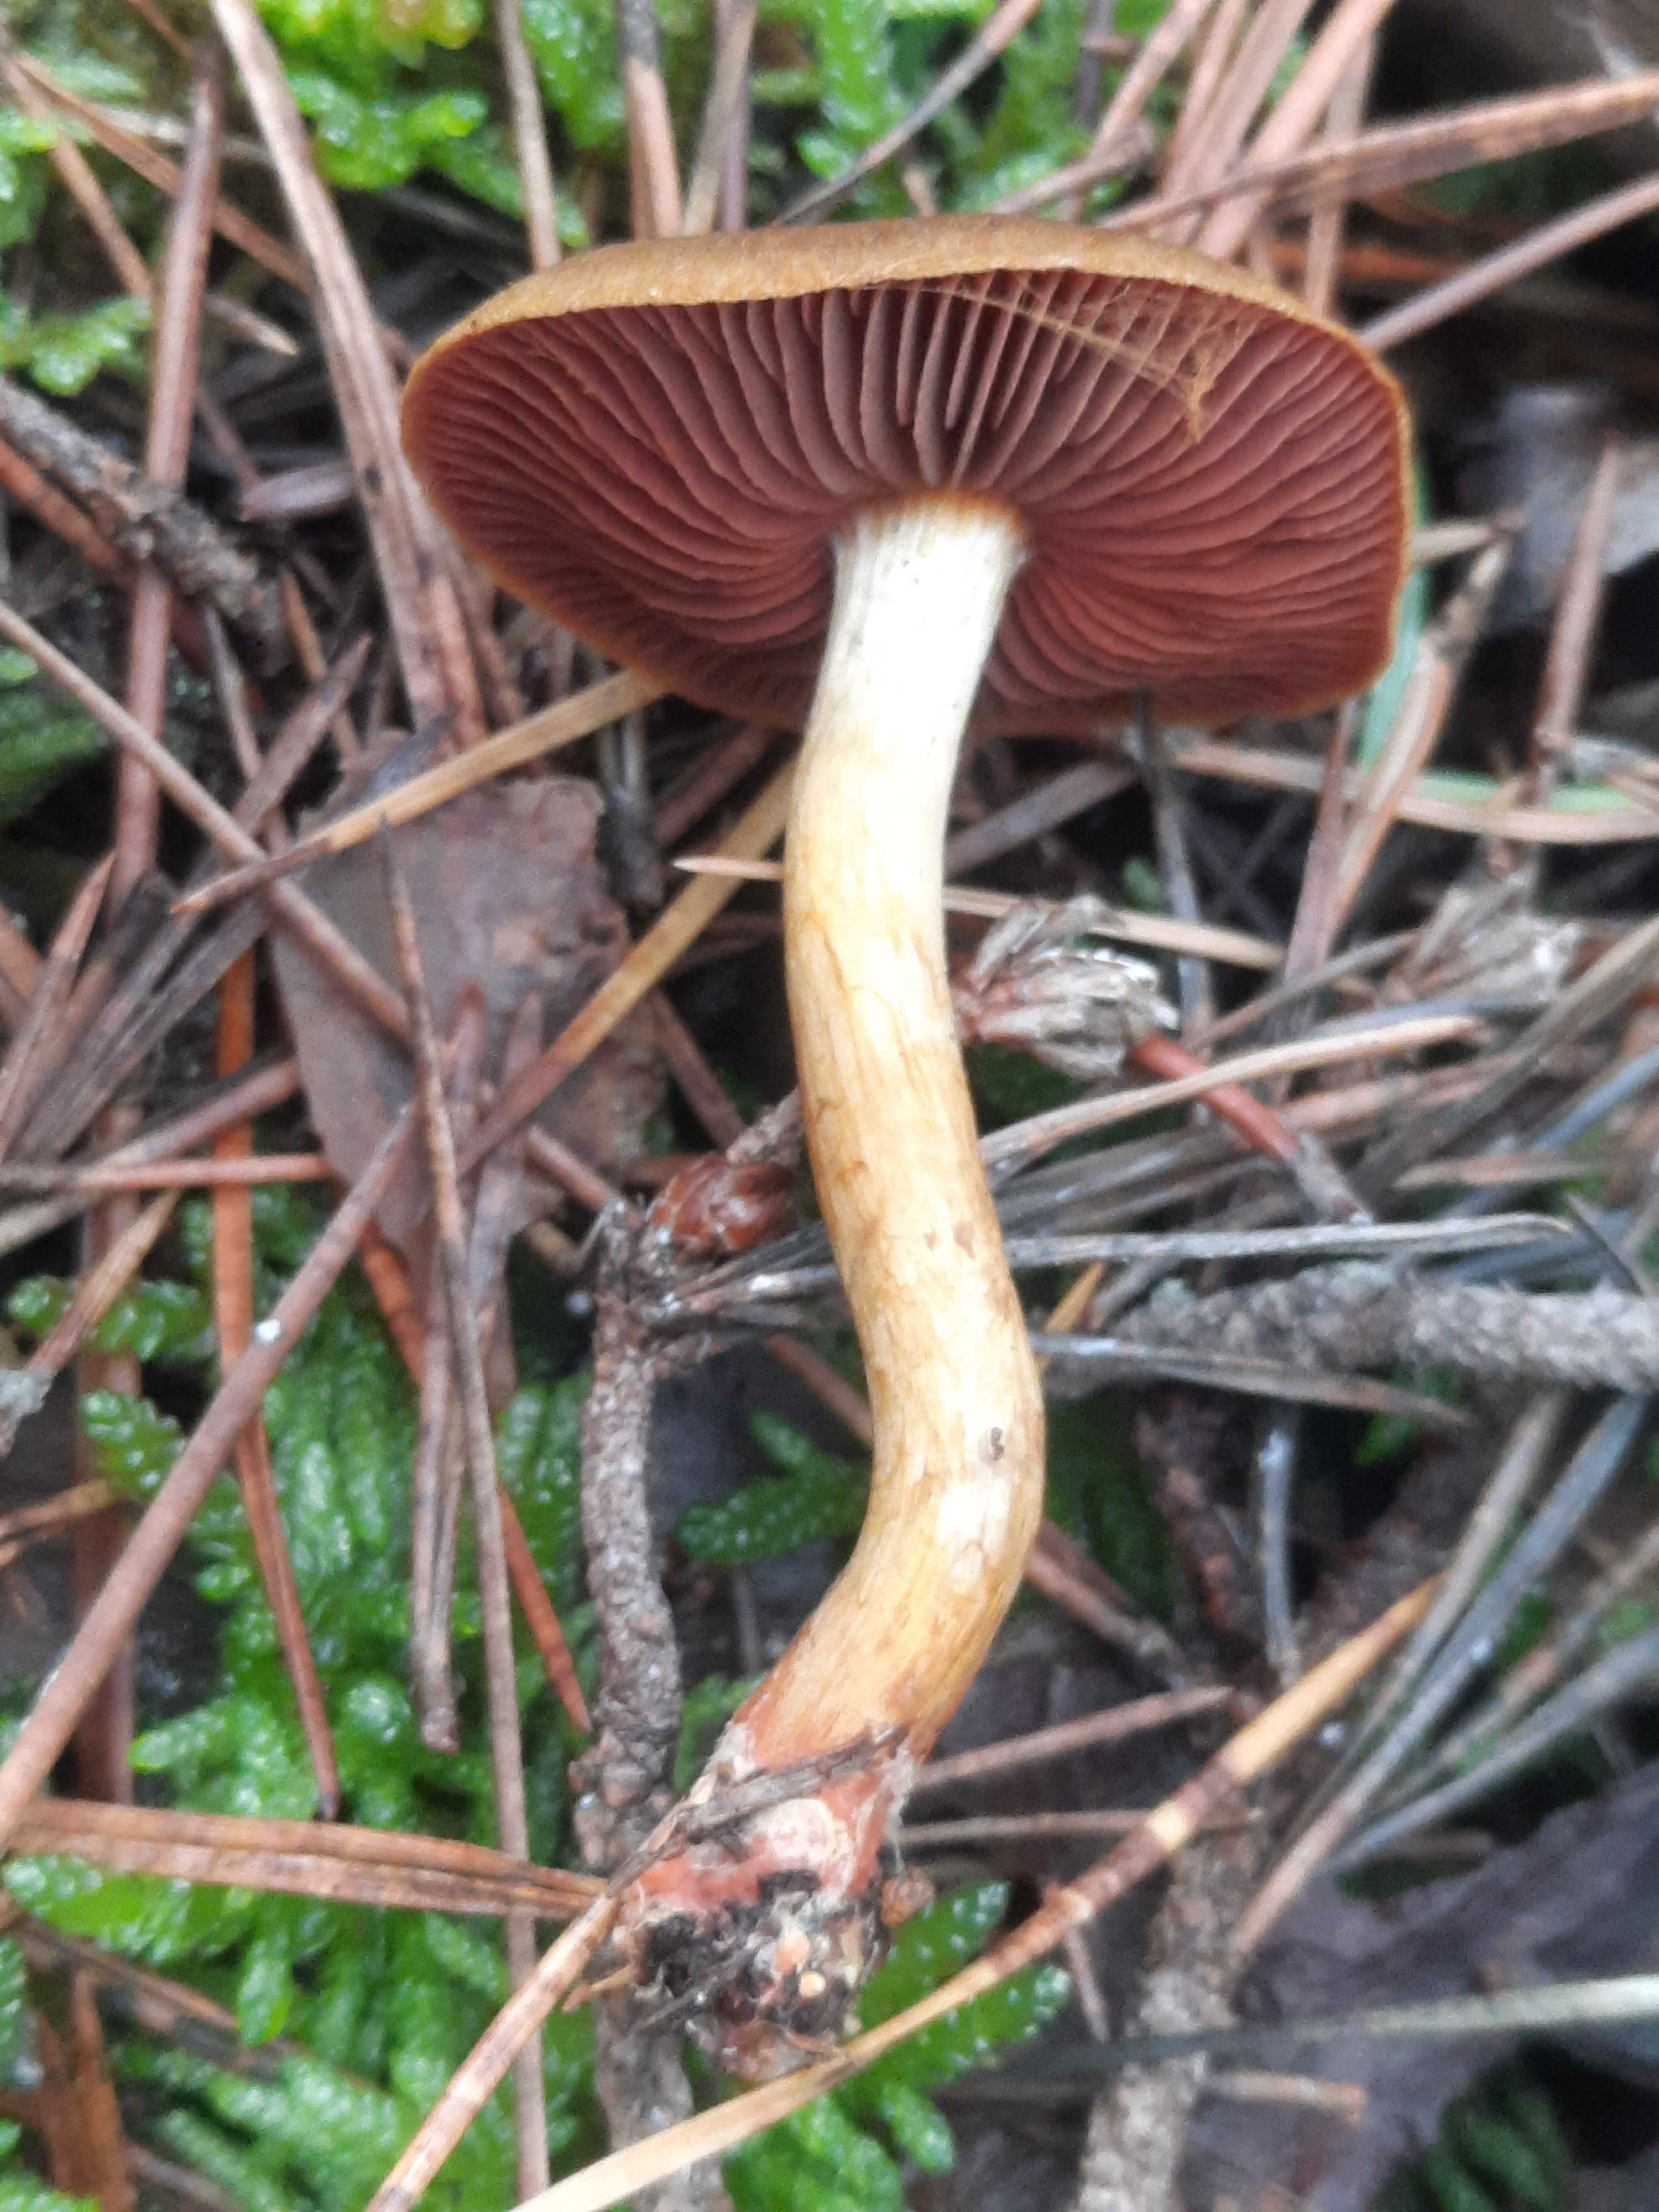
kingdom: Fungi
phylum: Basidiomycota
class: Agaricomycetes
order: Agaricales
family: Cortinariaceae
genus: Cortinarius
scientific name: Cortinarius
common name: cinnoberbladet slørhat
